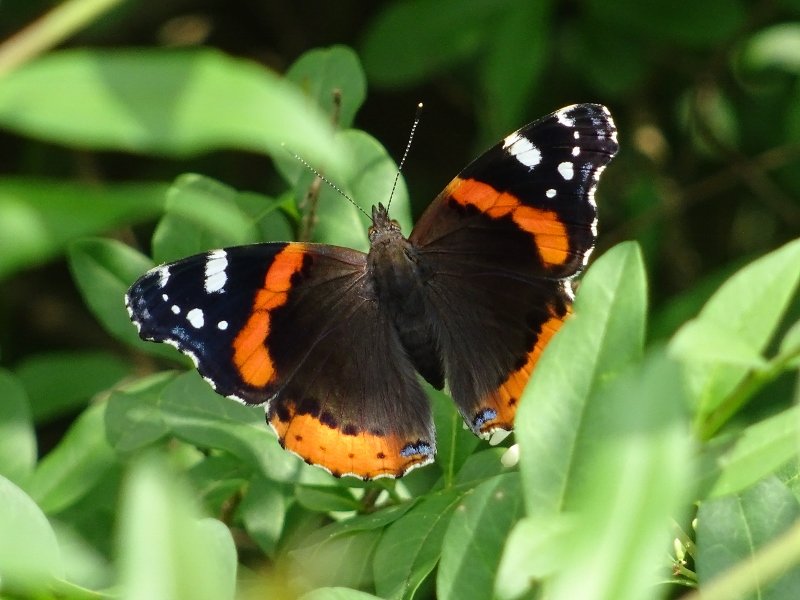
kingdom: Animalia
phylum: Arthropoda
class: Insecta
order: Lepidoptera
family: Nymphalidae
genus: Vanessa
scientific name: Vanessa atalanta
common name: Red Admiral
